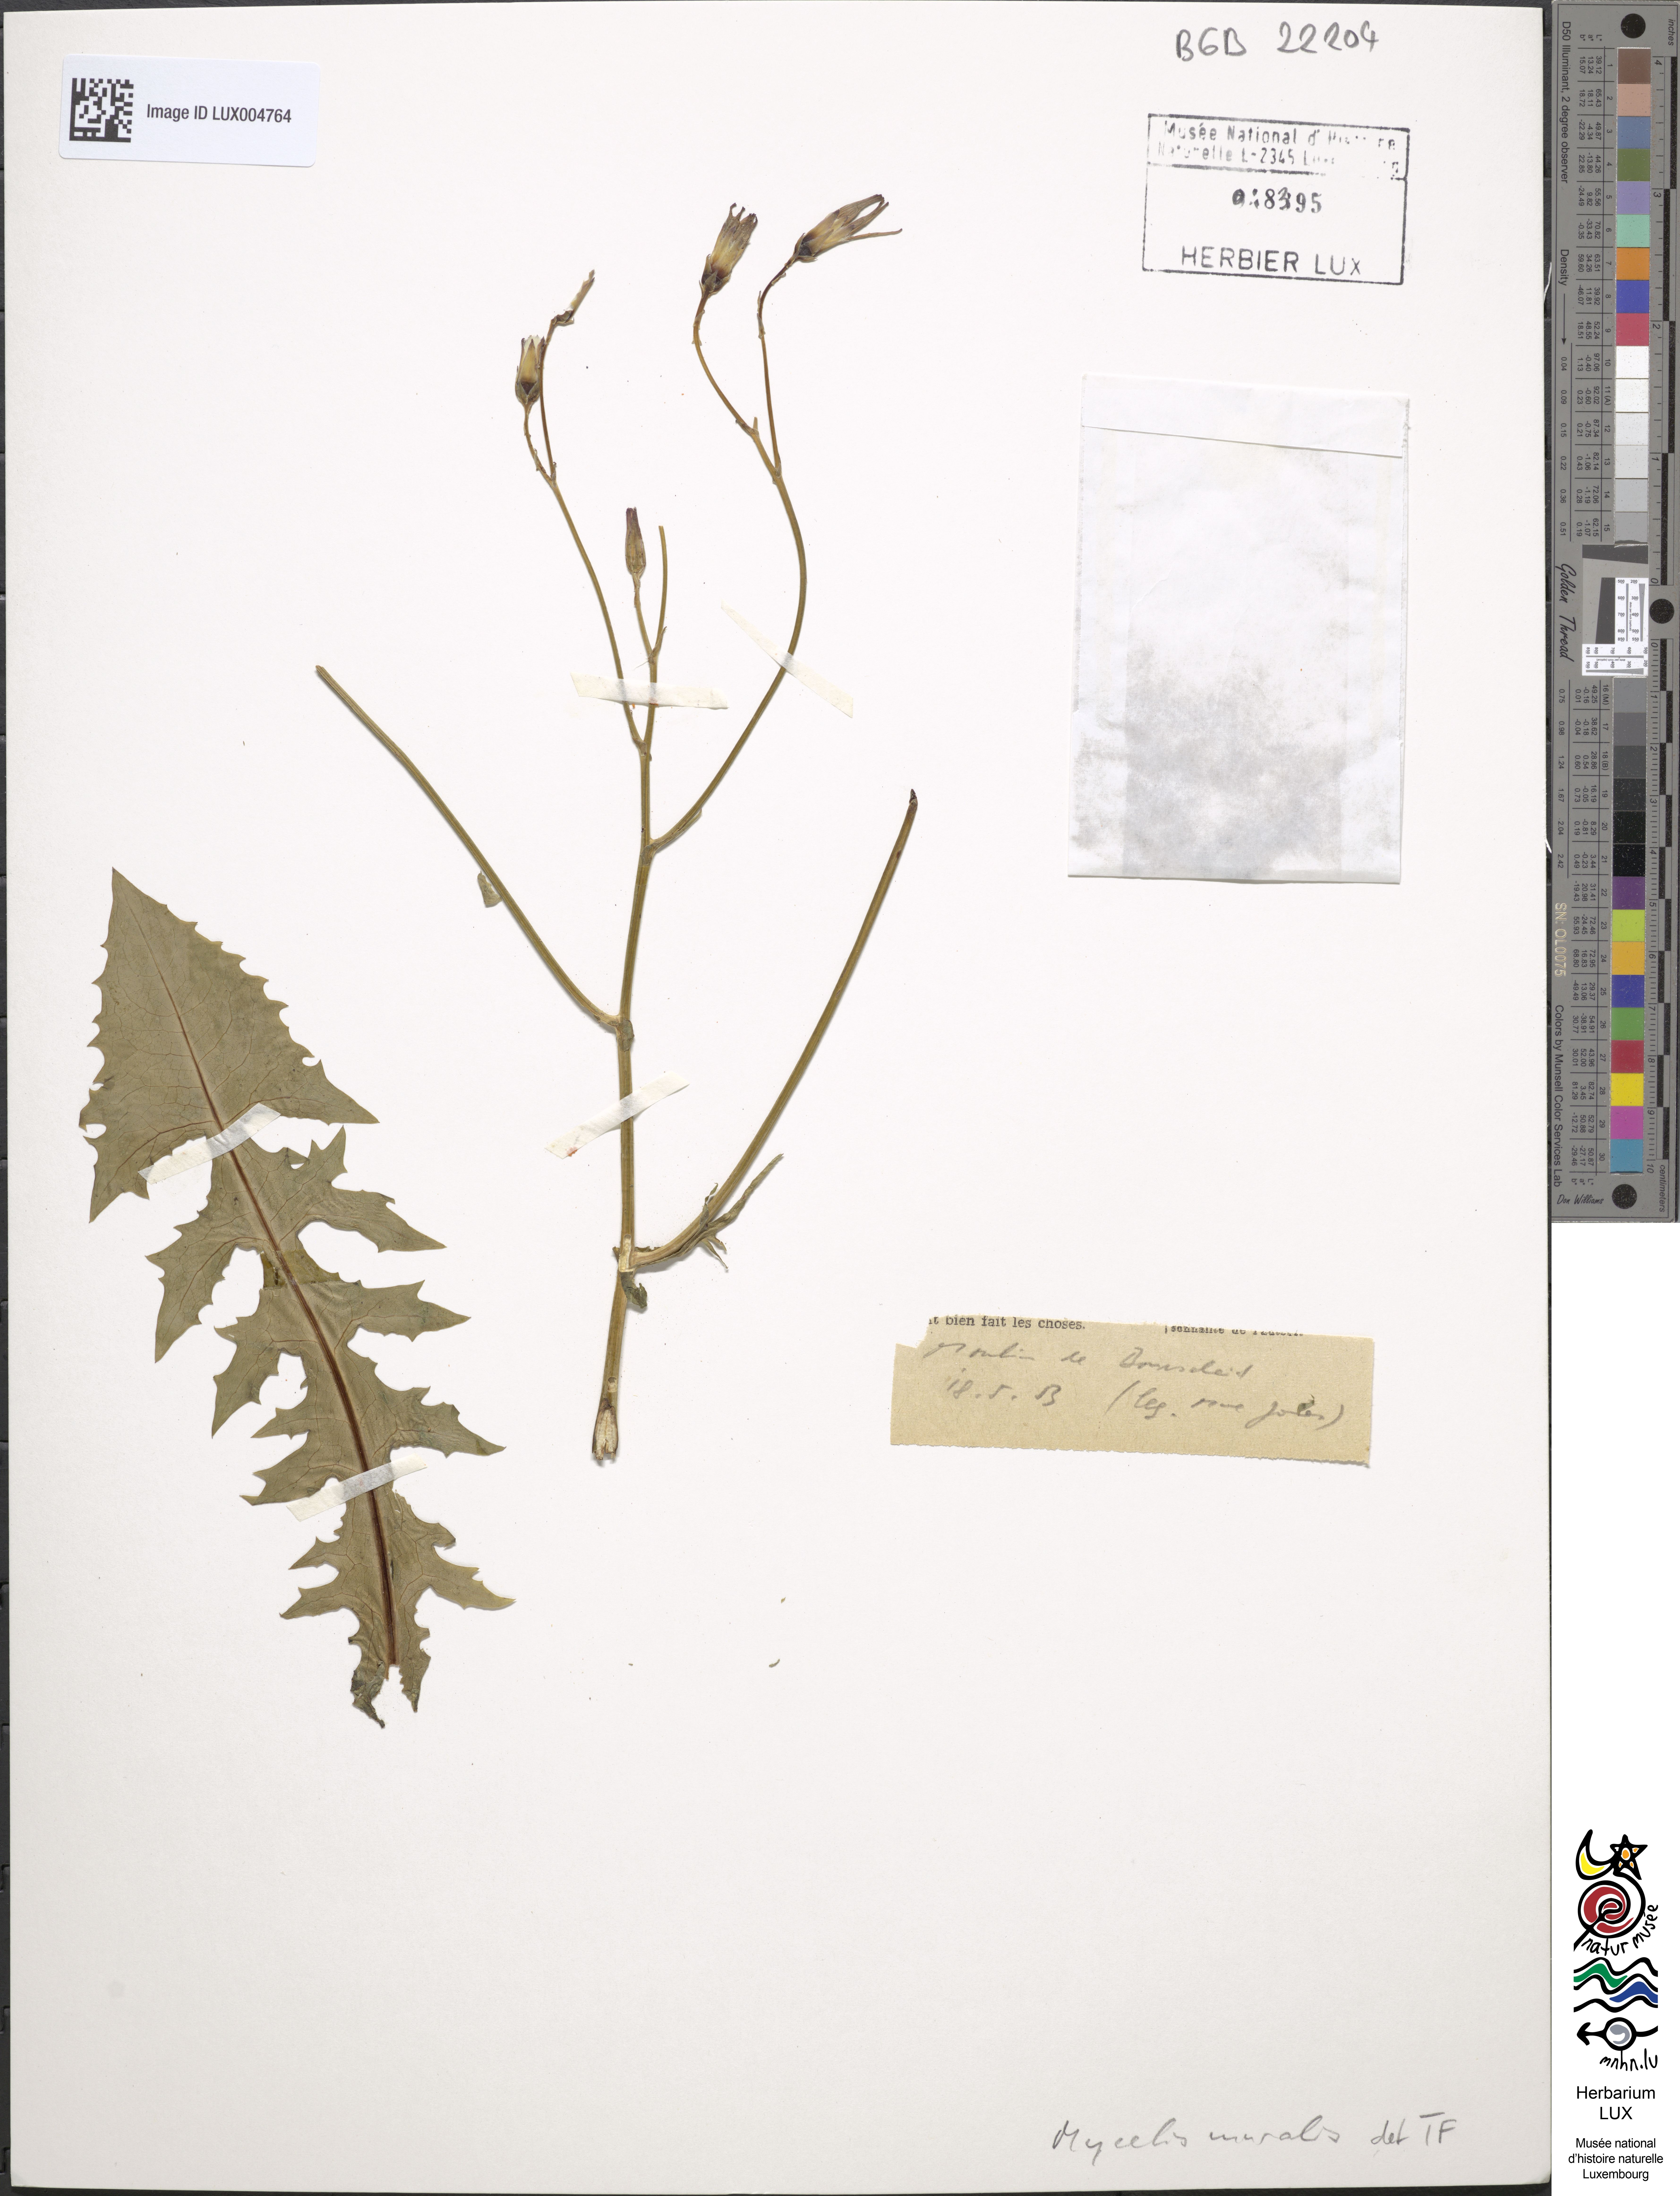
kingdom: Plantae
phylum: Tracheophyta
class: Magnoliopsida
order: Asterales
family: Asteraceae
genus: Mycelis
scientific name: Mycelis muralis
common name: Wall lettuce
